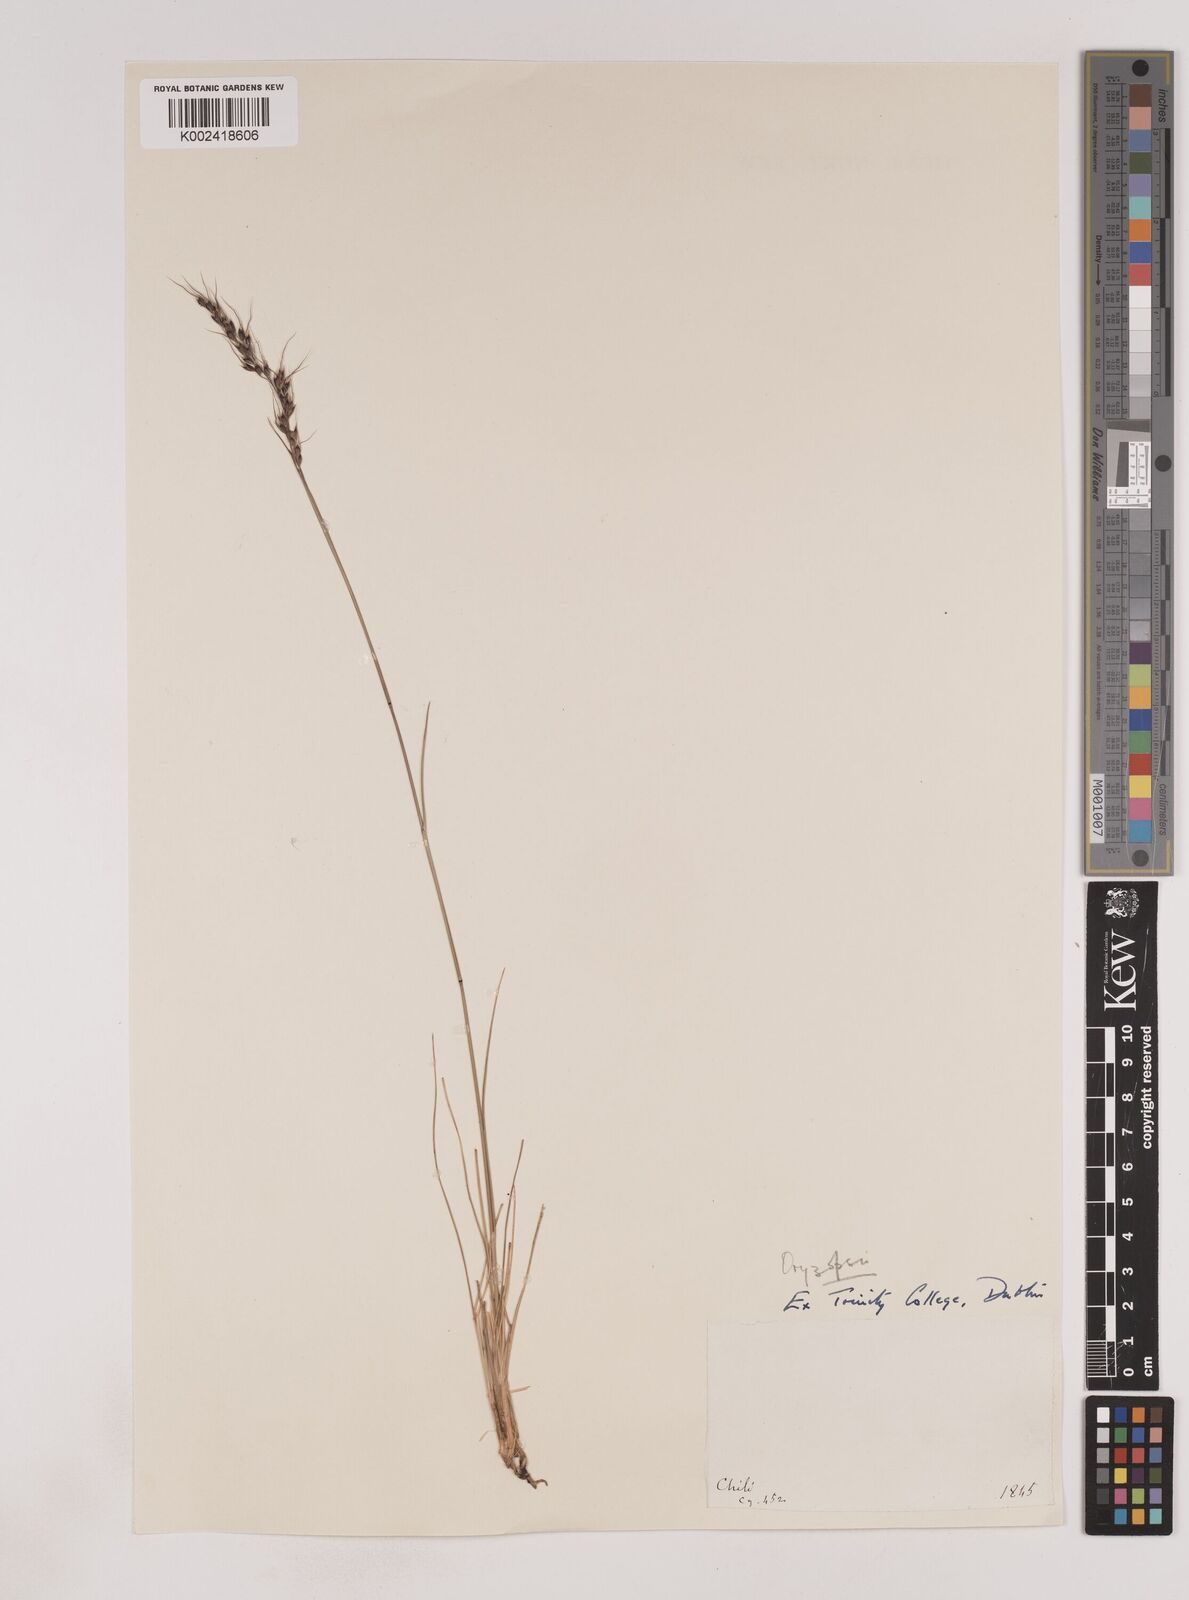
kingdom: Plantae
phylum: Tracheophyta
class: Liliopsida
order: Poales
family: Poaceae
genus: Piptochaetium
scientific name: Piptochaetium
